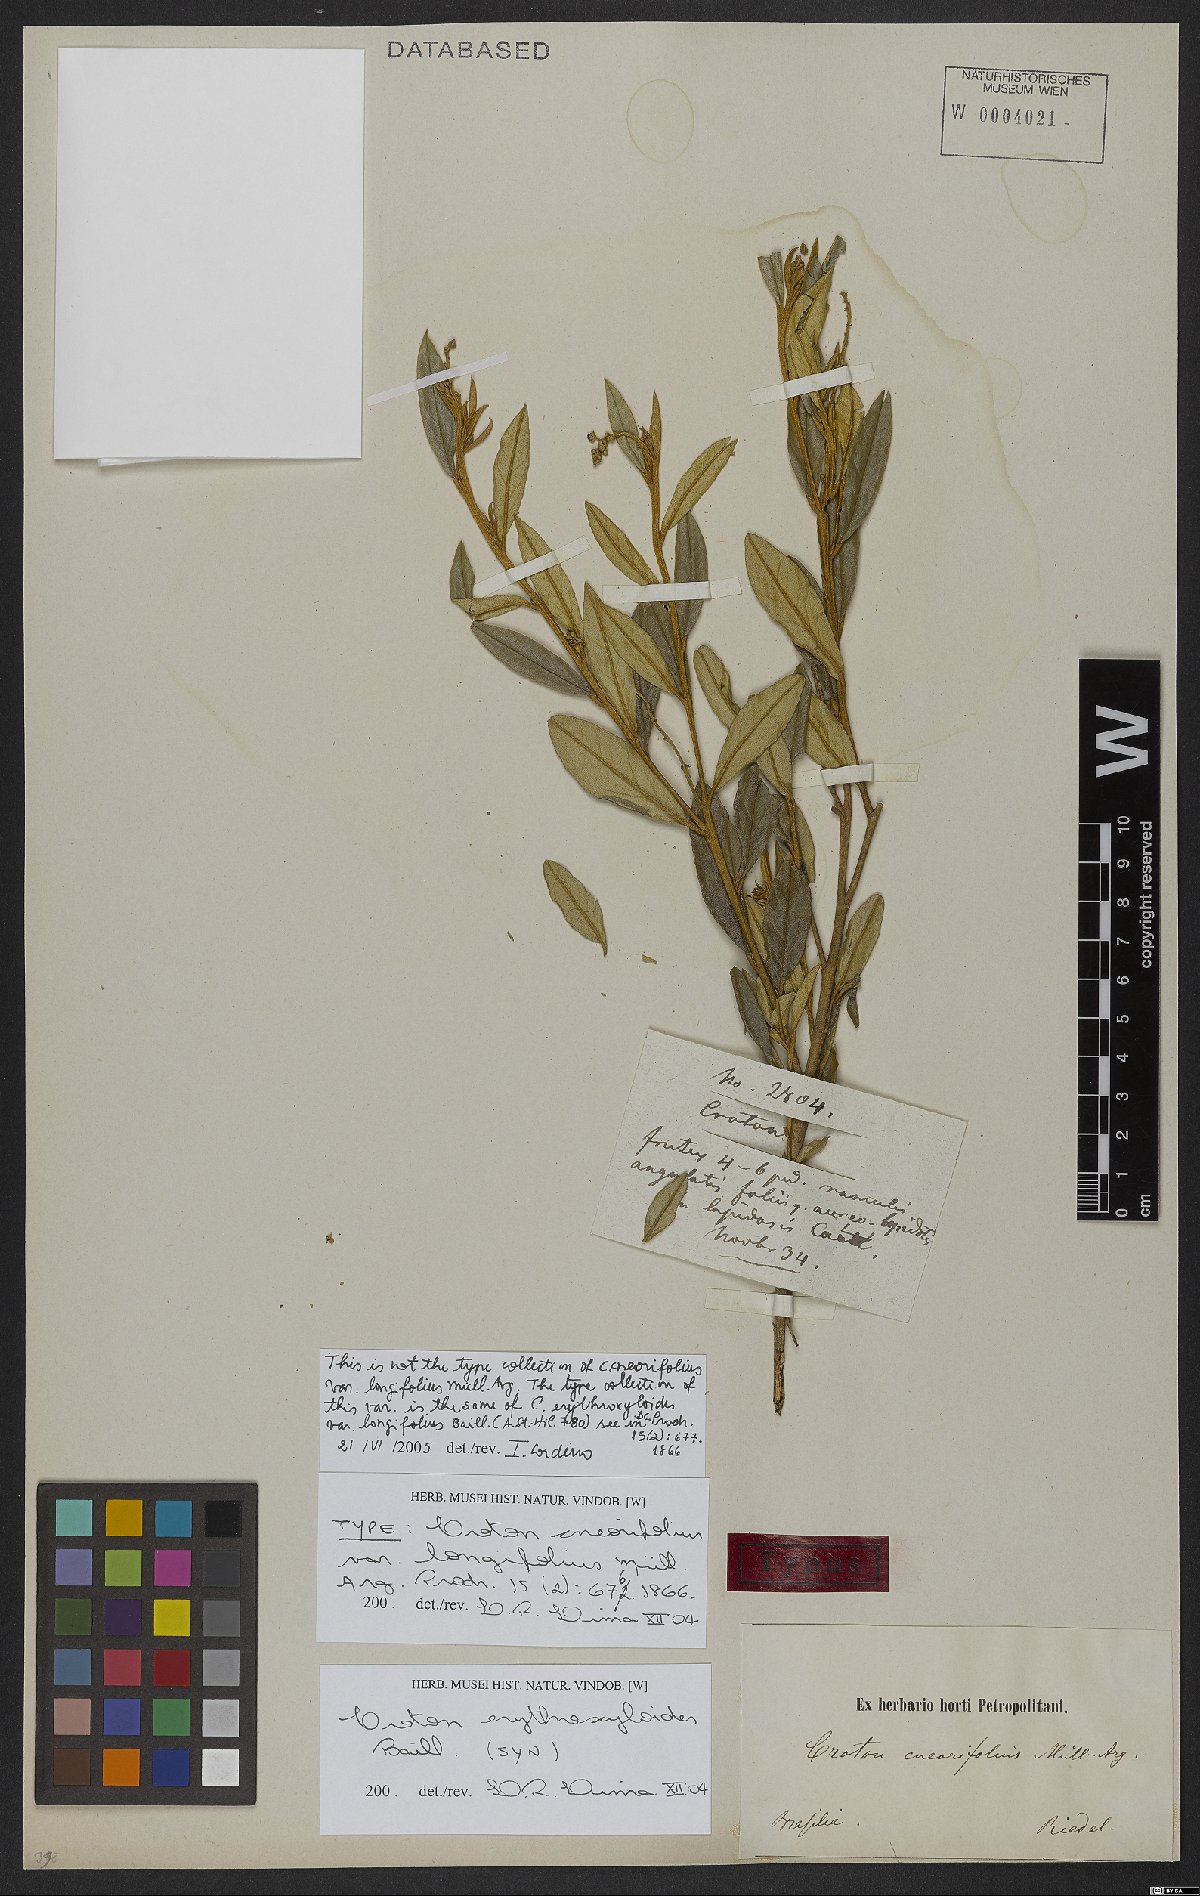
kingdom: Plantae
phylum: Tracheophyta
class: Magnoliopsida
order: Malpighiales
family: Euphorbiaceae
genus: Croton
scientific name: Croton erythroxyloides
